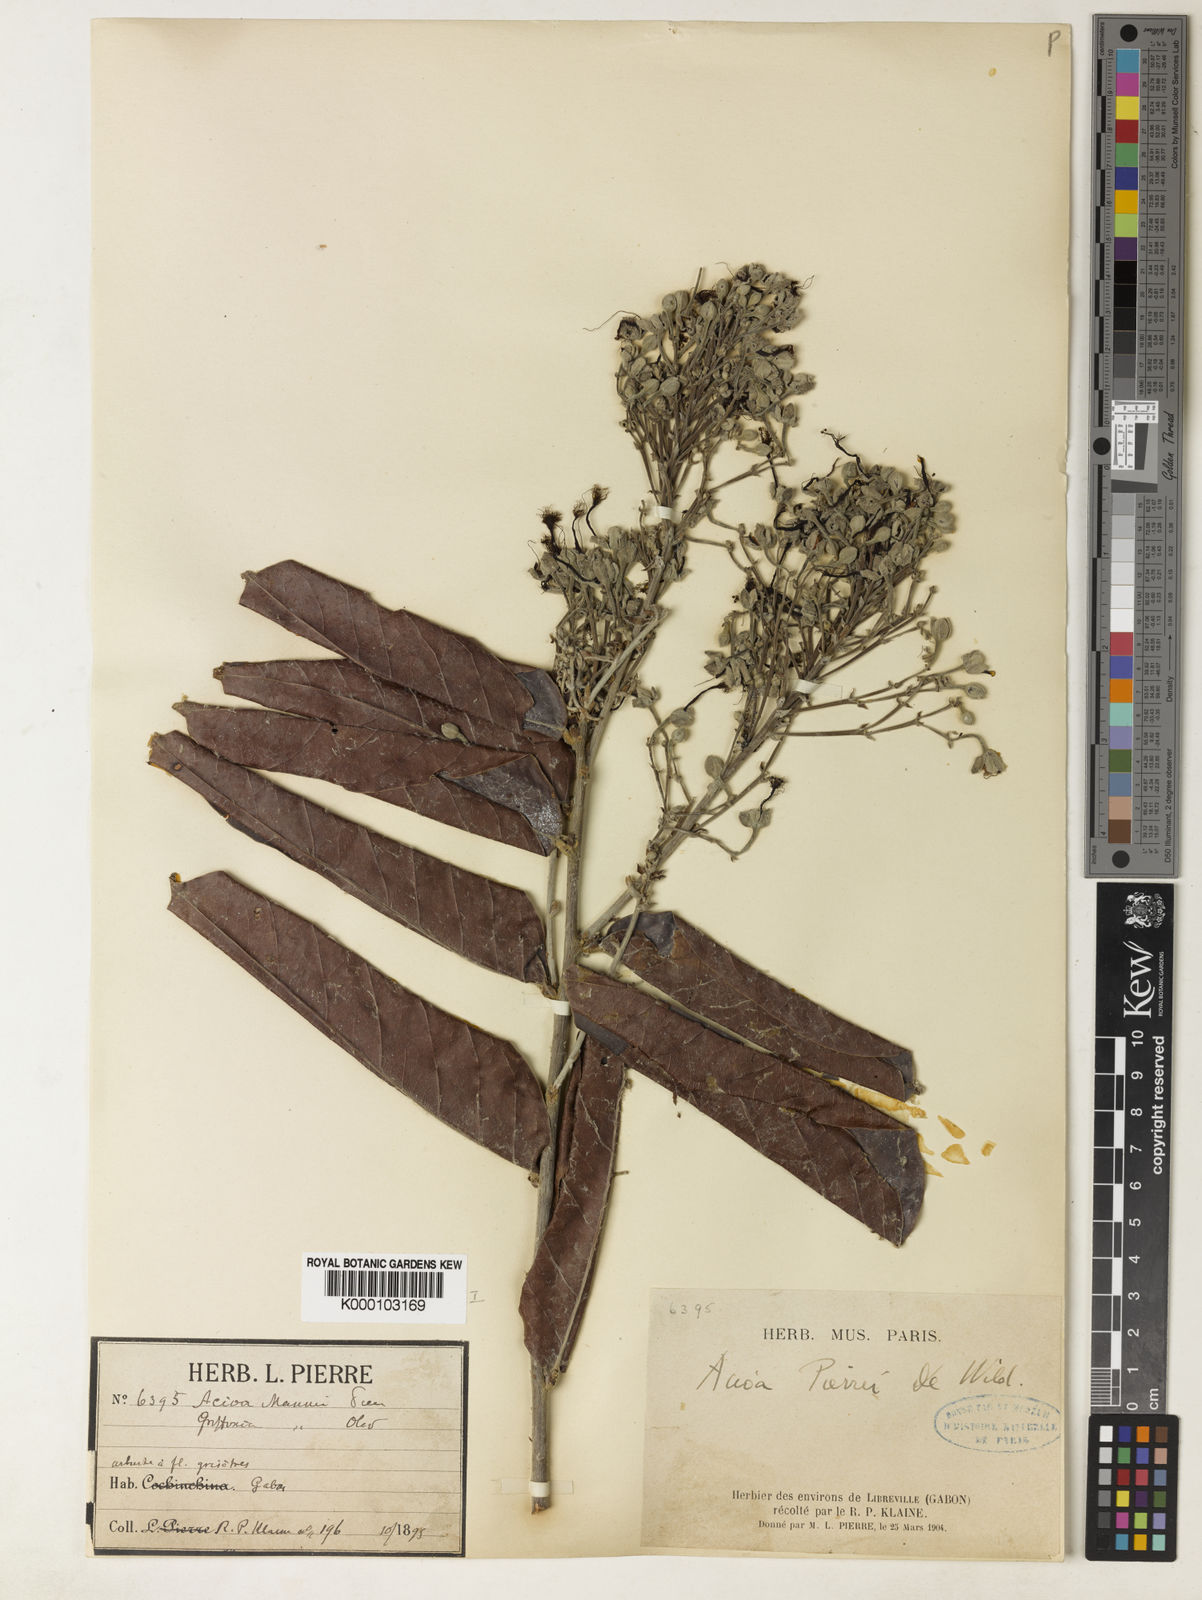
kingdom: Plantae
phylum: Tracheophyta
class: Magnoliopsida
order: Malpighiales
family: Chrysobalanaceae
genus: Dactyladenia
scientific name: Dactyladenia pierrei
